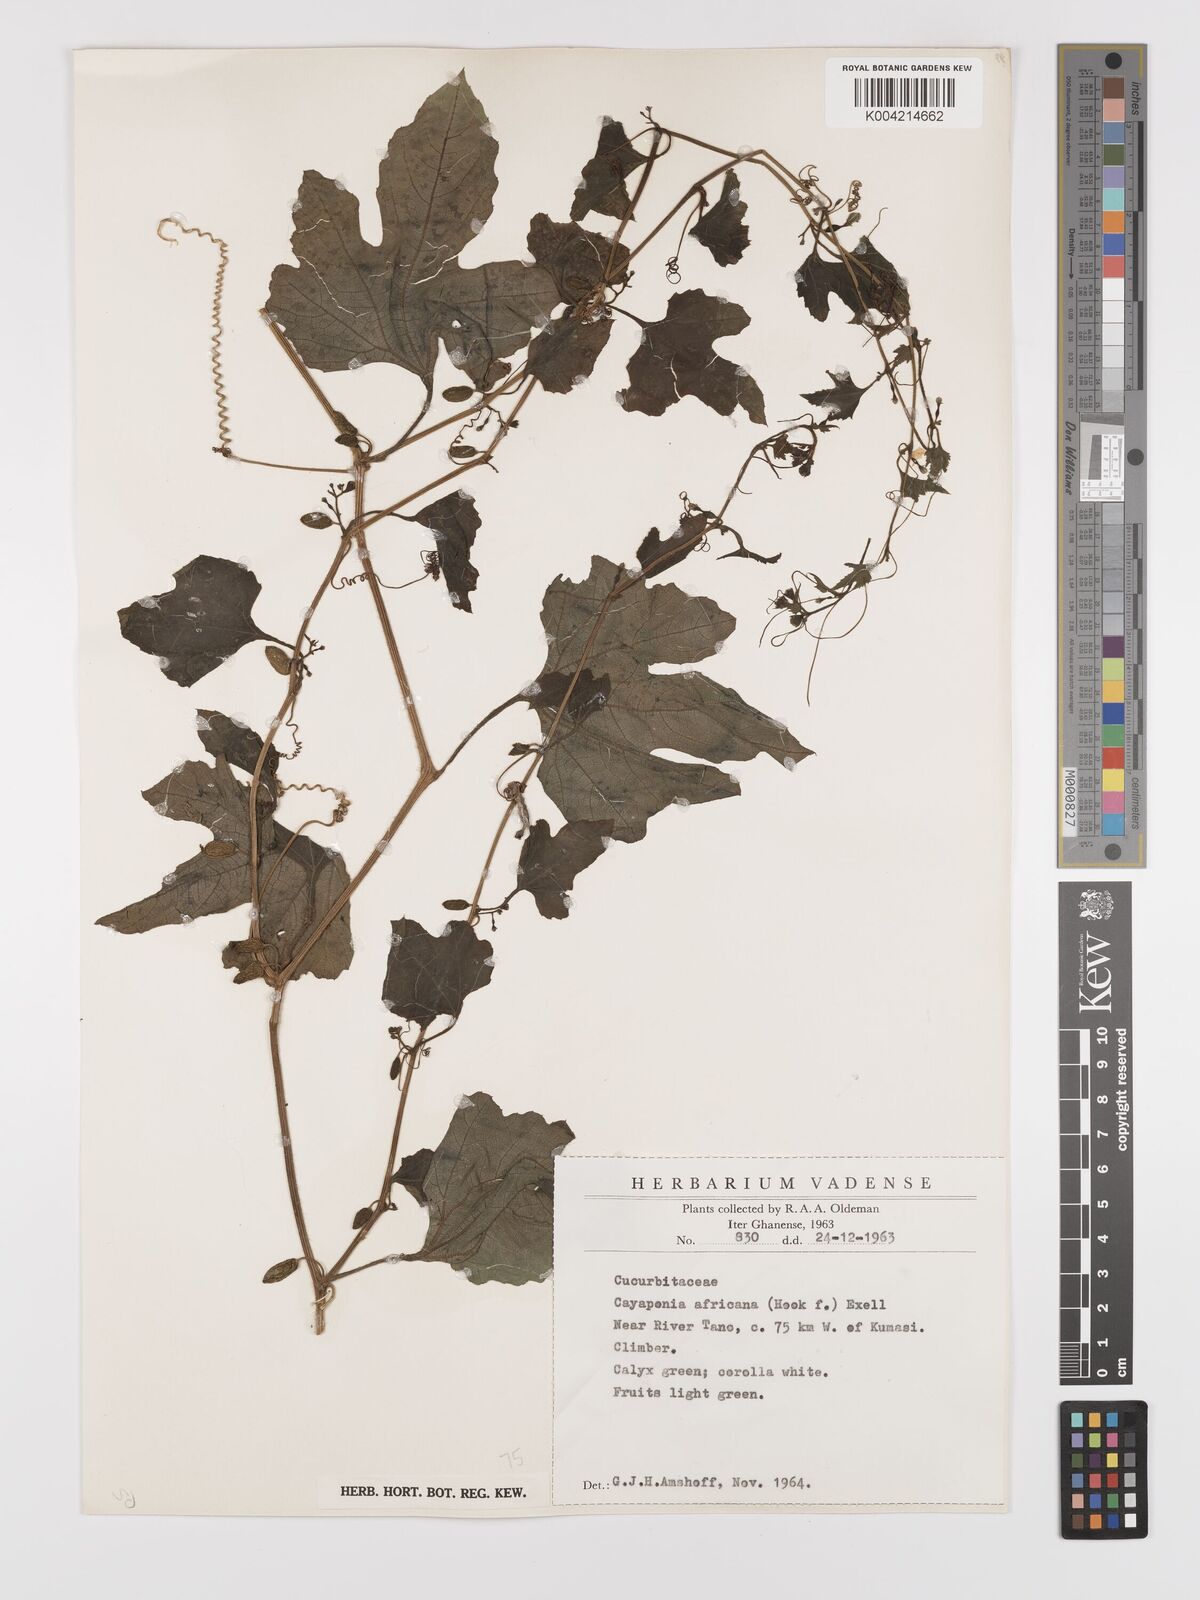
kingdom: Plantae
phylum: Tracheophyta
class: Magnoliopsida
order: Cucurbitales
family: Cucurbitaceae
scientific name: Cucurbitaceae
